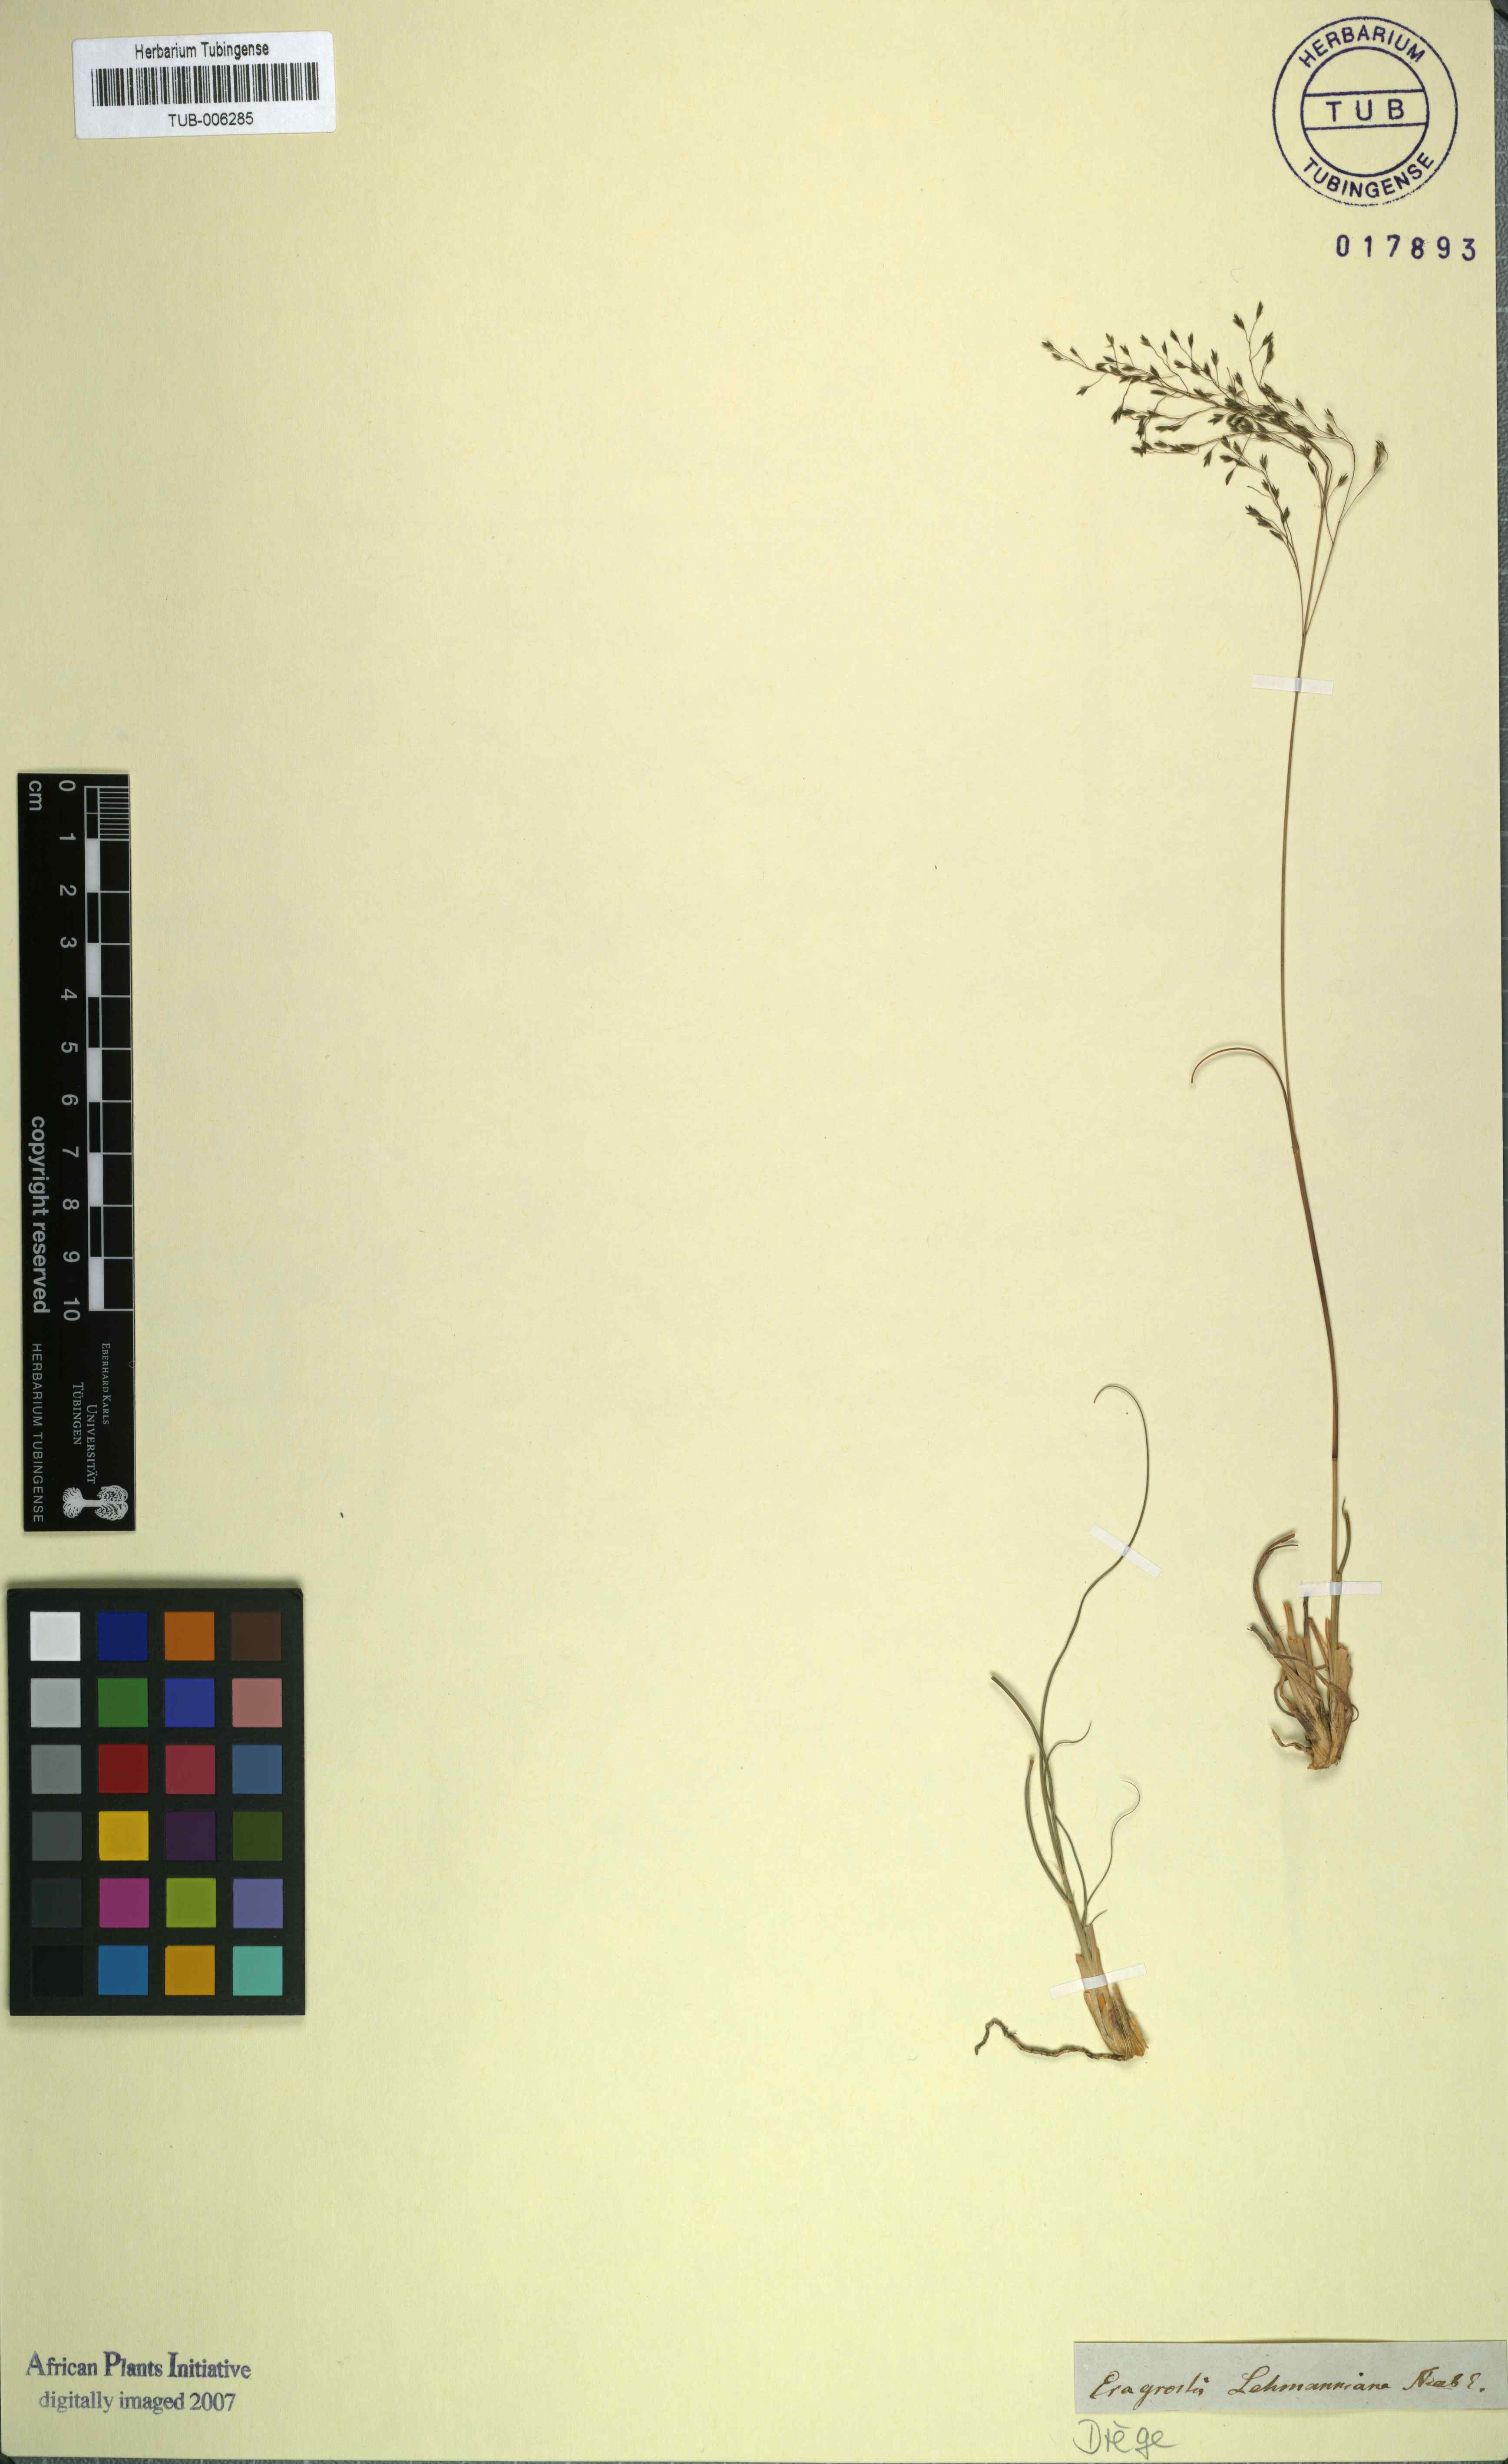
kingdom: Plantae
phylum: Tracheophyta
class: Liliopsida
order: Poales
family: Poaceae
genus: Eragrostis
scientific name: Eragrostis lehmanniana
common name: Lehmann lovegrass
